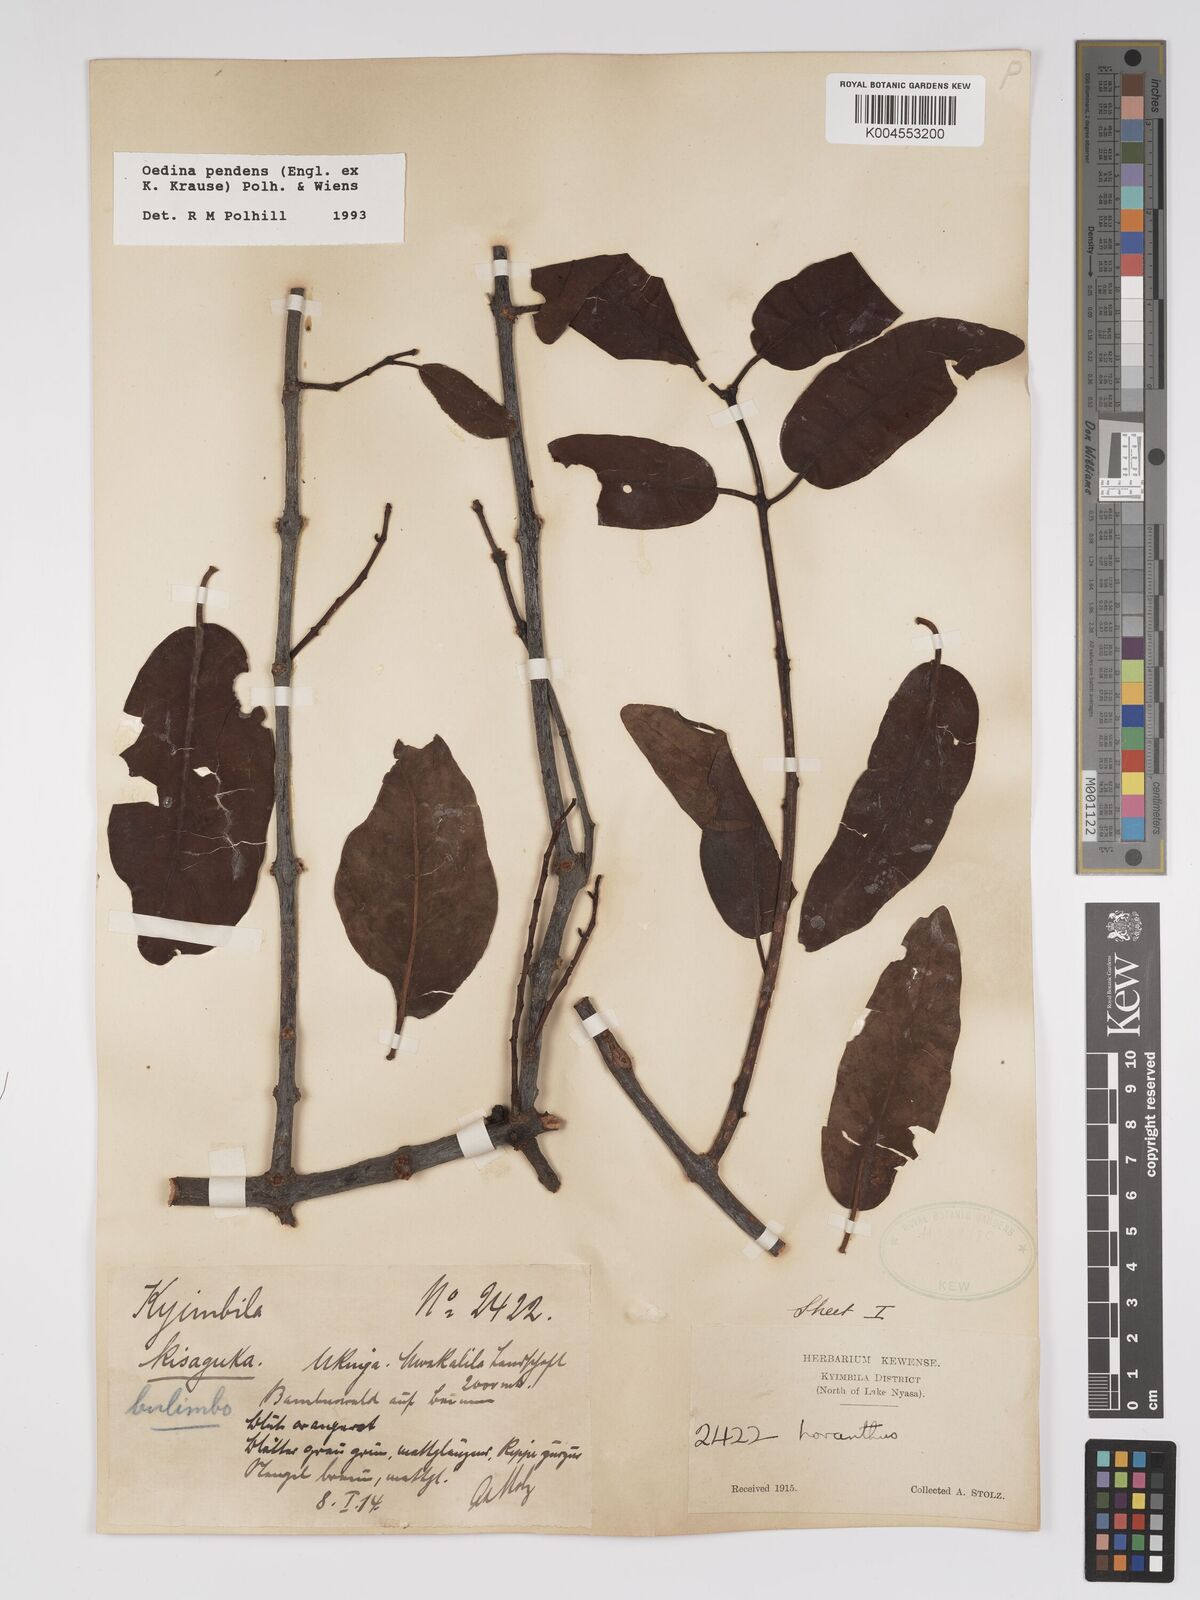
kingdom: Plantae
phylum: Tracheophyta
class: Magnoliopsida
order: Santalales
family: Loranthaceae
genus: Oedina
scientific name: Oedina pendens
